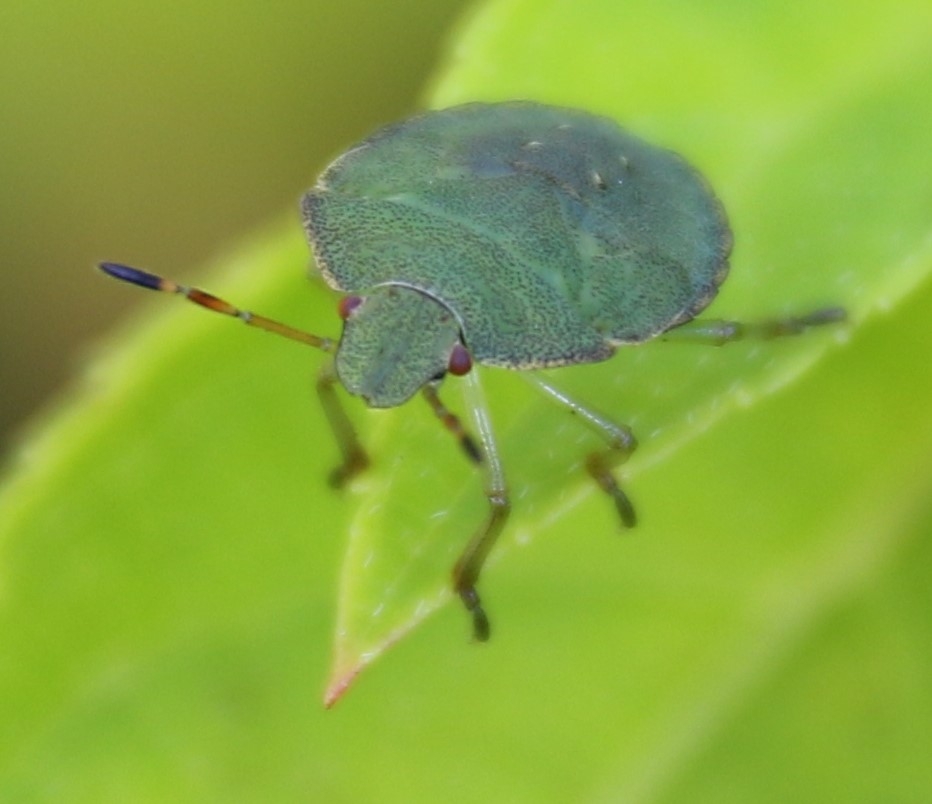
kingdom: Animalia
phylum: Arthropoda
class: Insecta
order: Hemiptera
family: Pentatomidae
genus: Palomena
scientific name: Palomena prasina
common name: Grøn bredtæge
